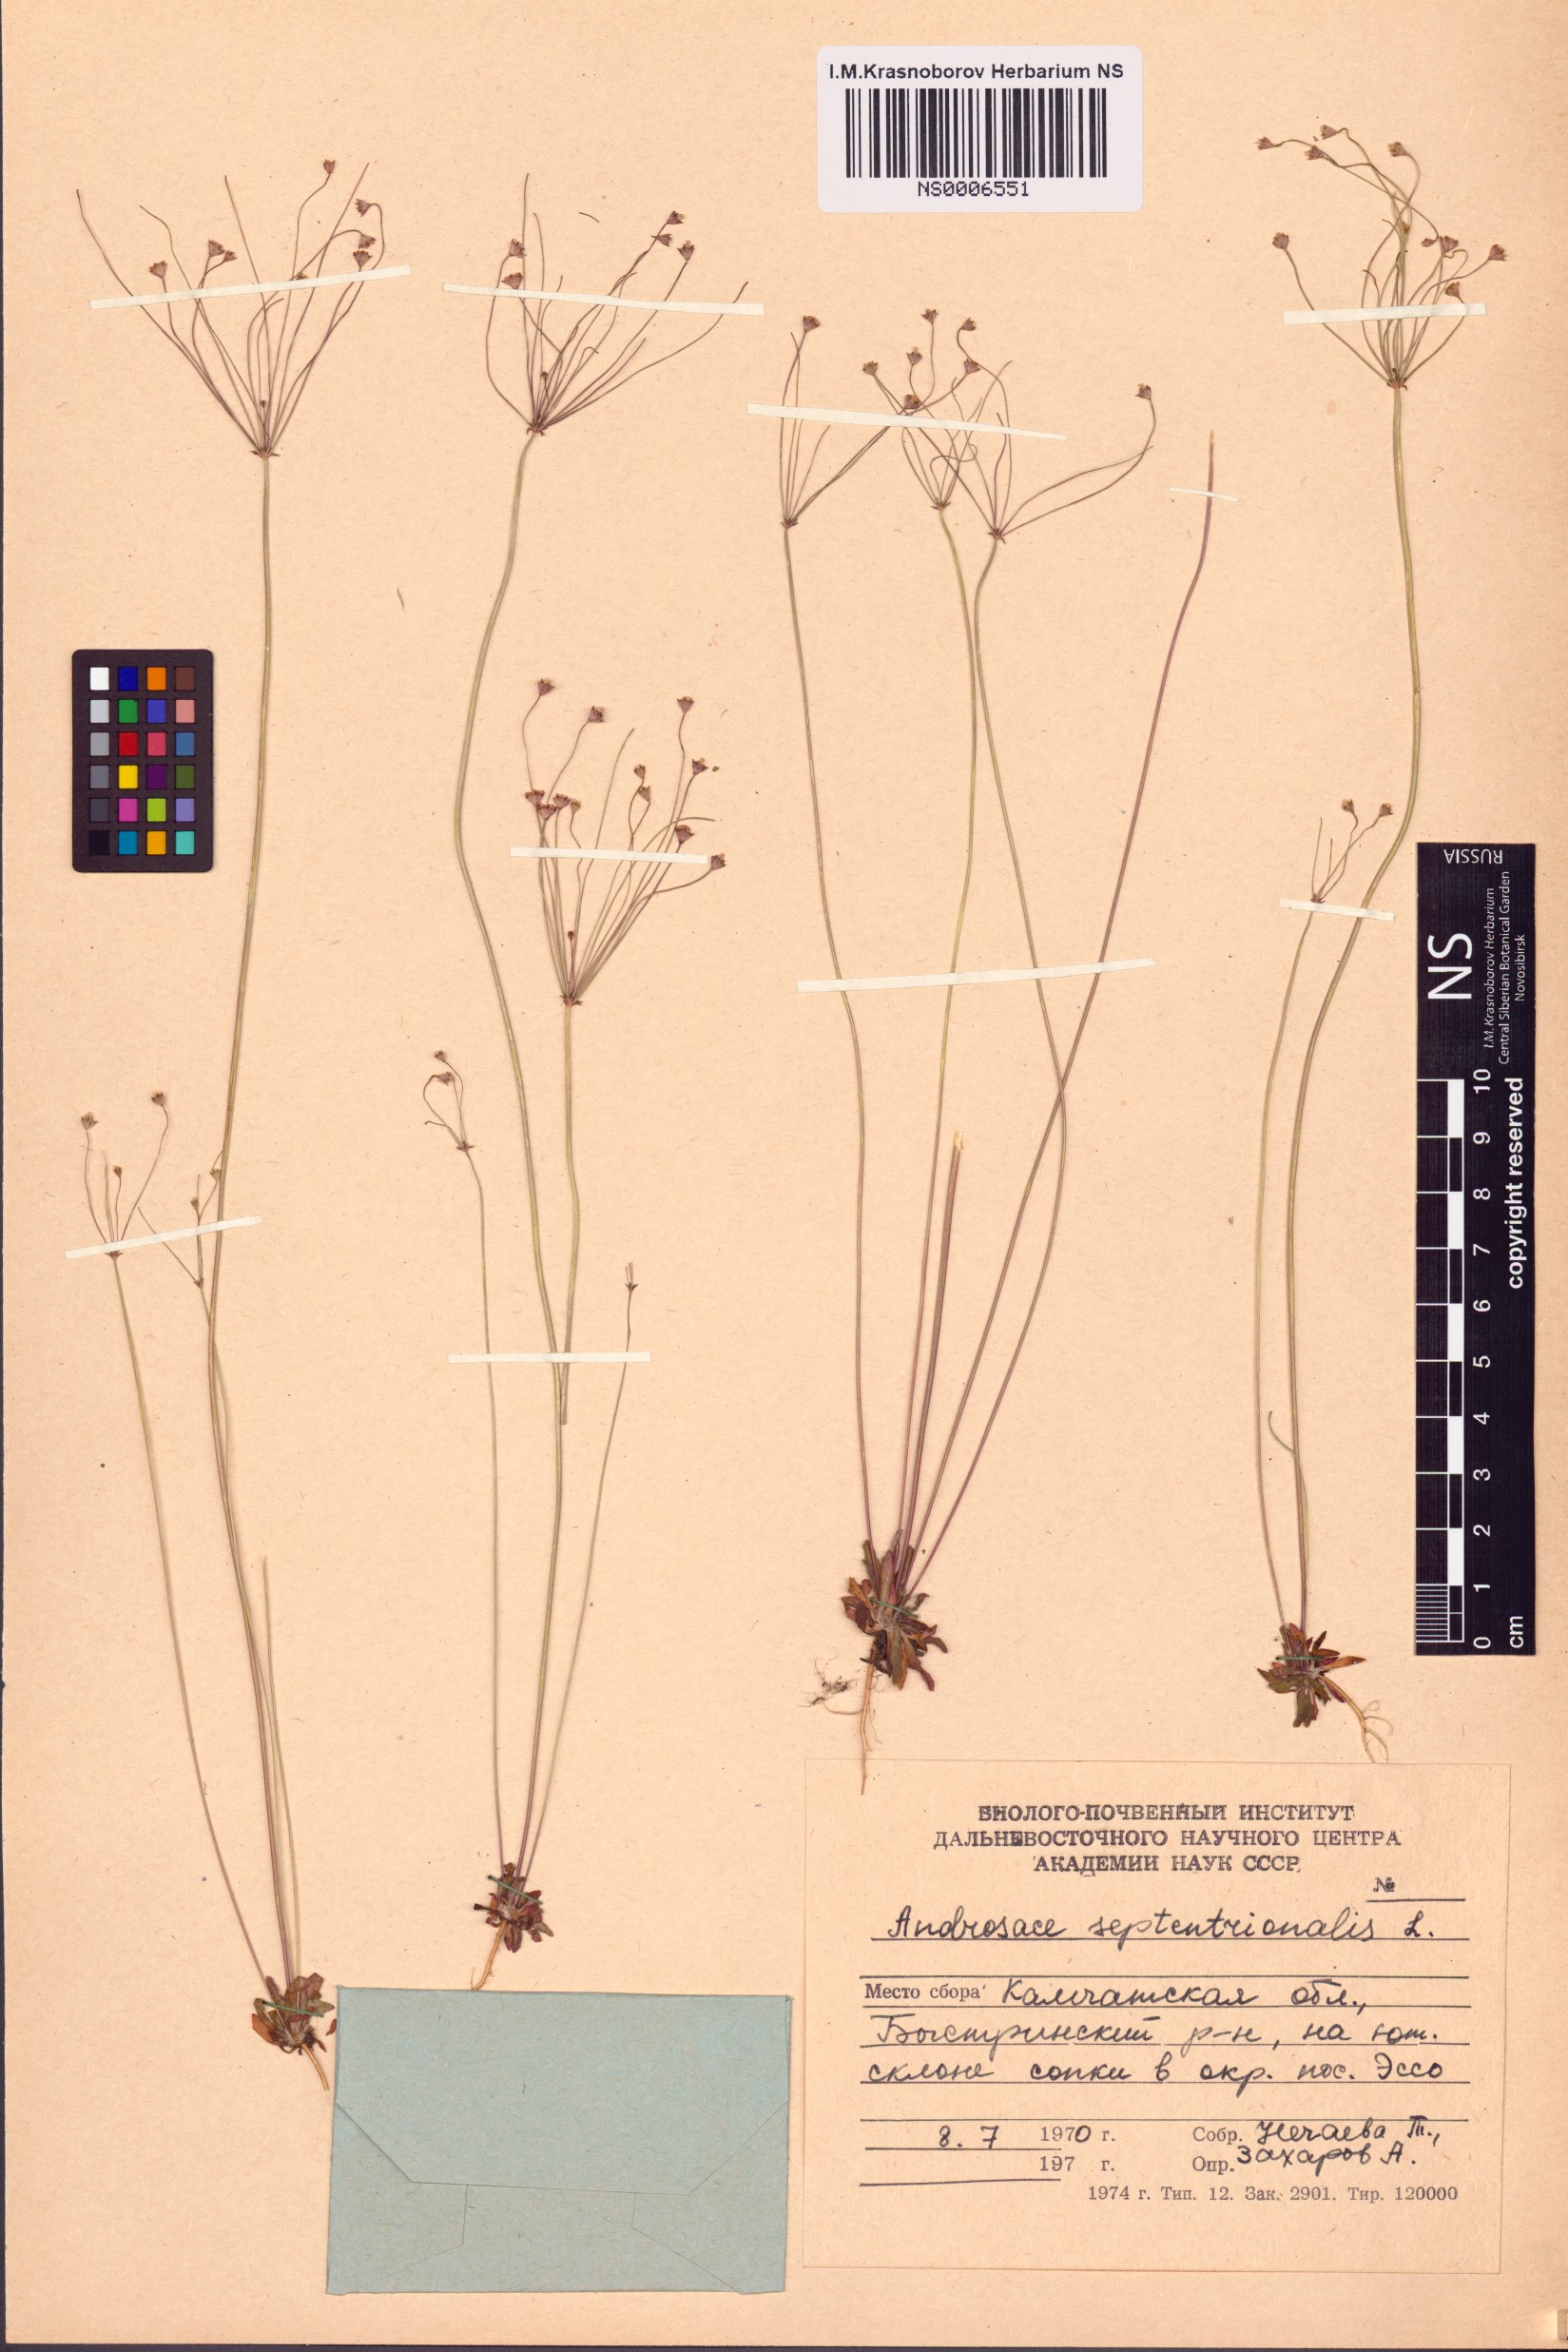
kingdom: Plantae
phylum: Tracheophyta
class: Magnoliopsida
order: Ericales
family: Primulaceae
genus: Androsace
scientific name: Androsace septentrionalis
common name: Hairy northern fairy-candelabra
